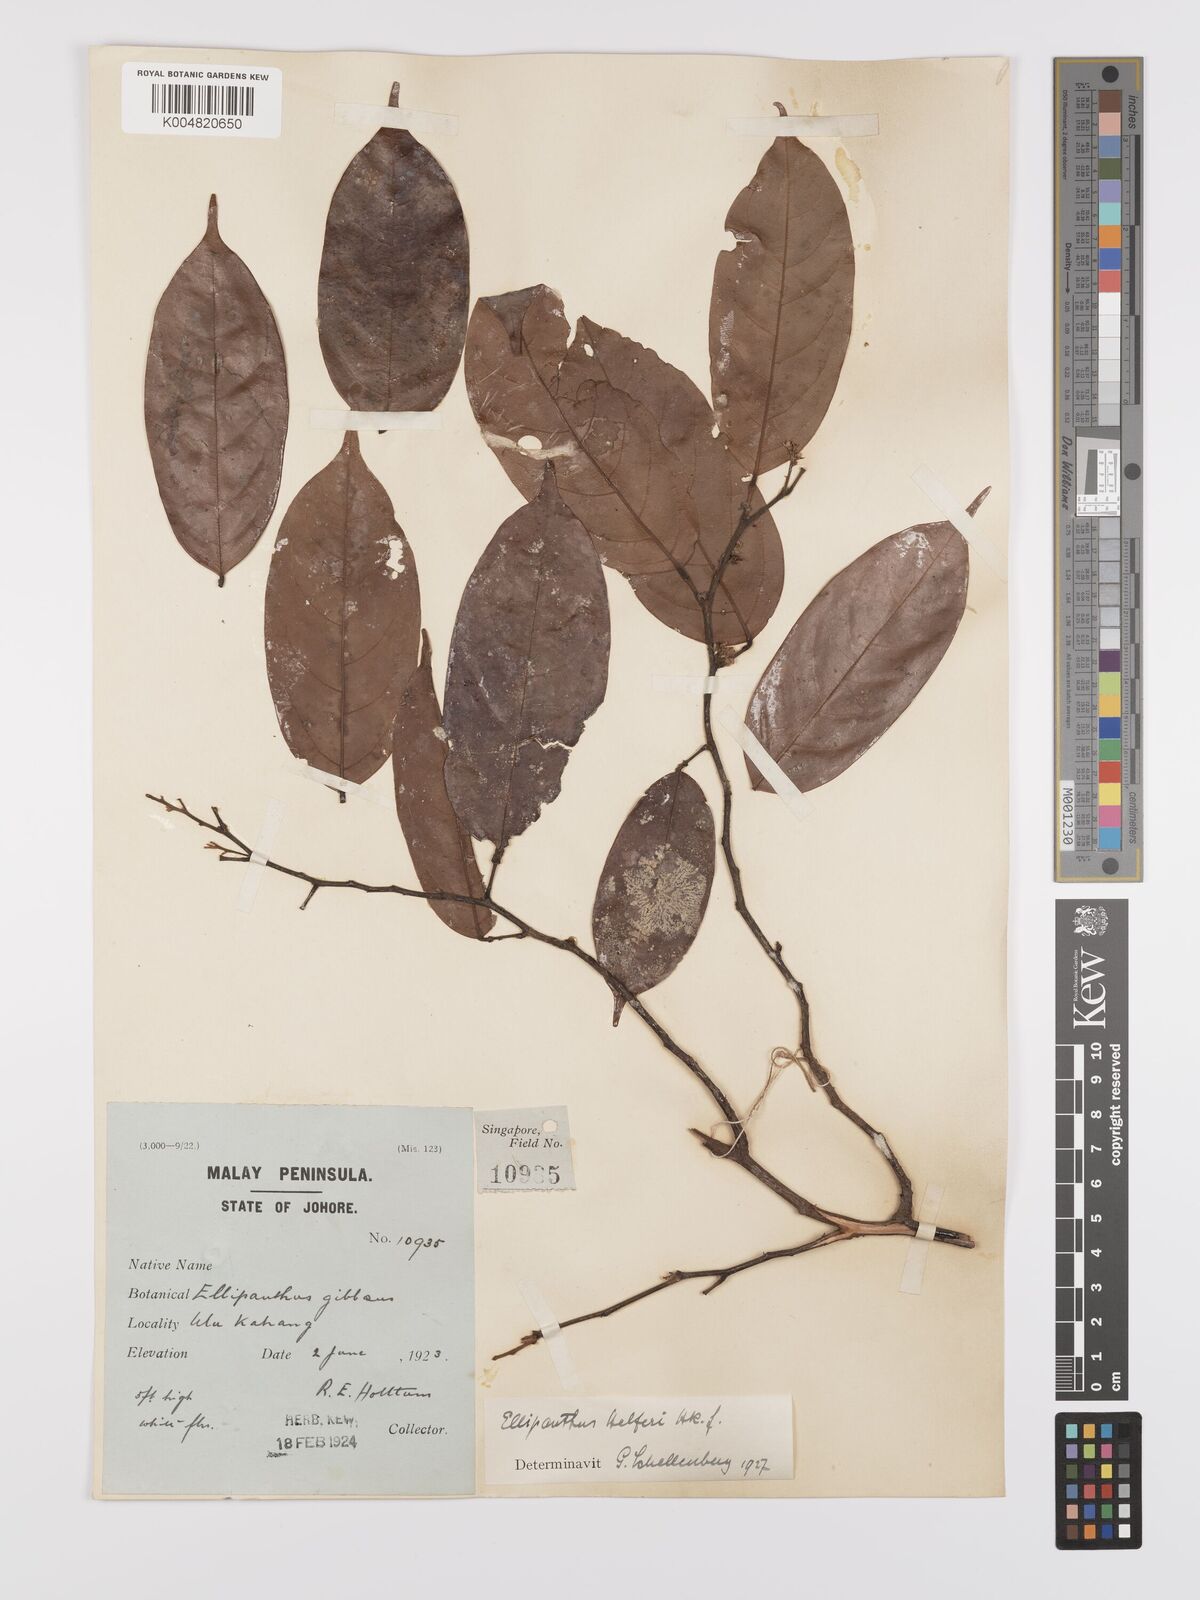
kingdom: Plantae
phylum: Tracheophyta
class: Magnoliopsida
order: Oxalidales
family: Connaraceae
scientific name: Connaraceae
